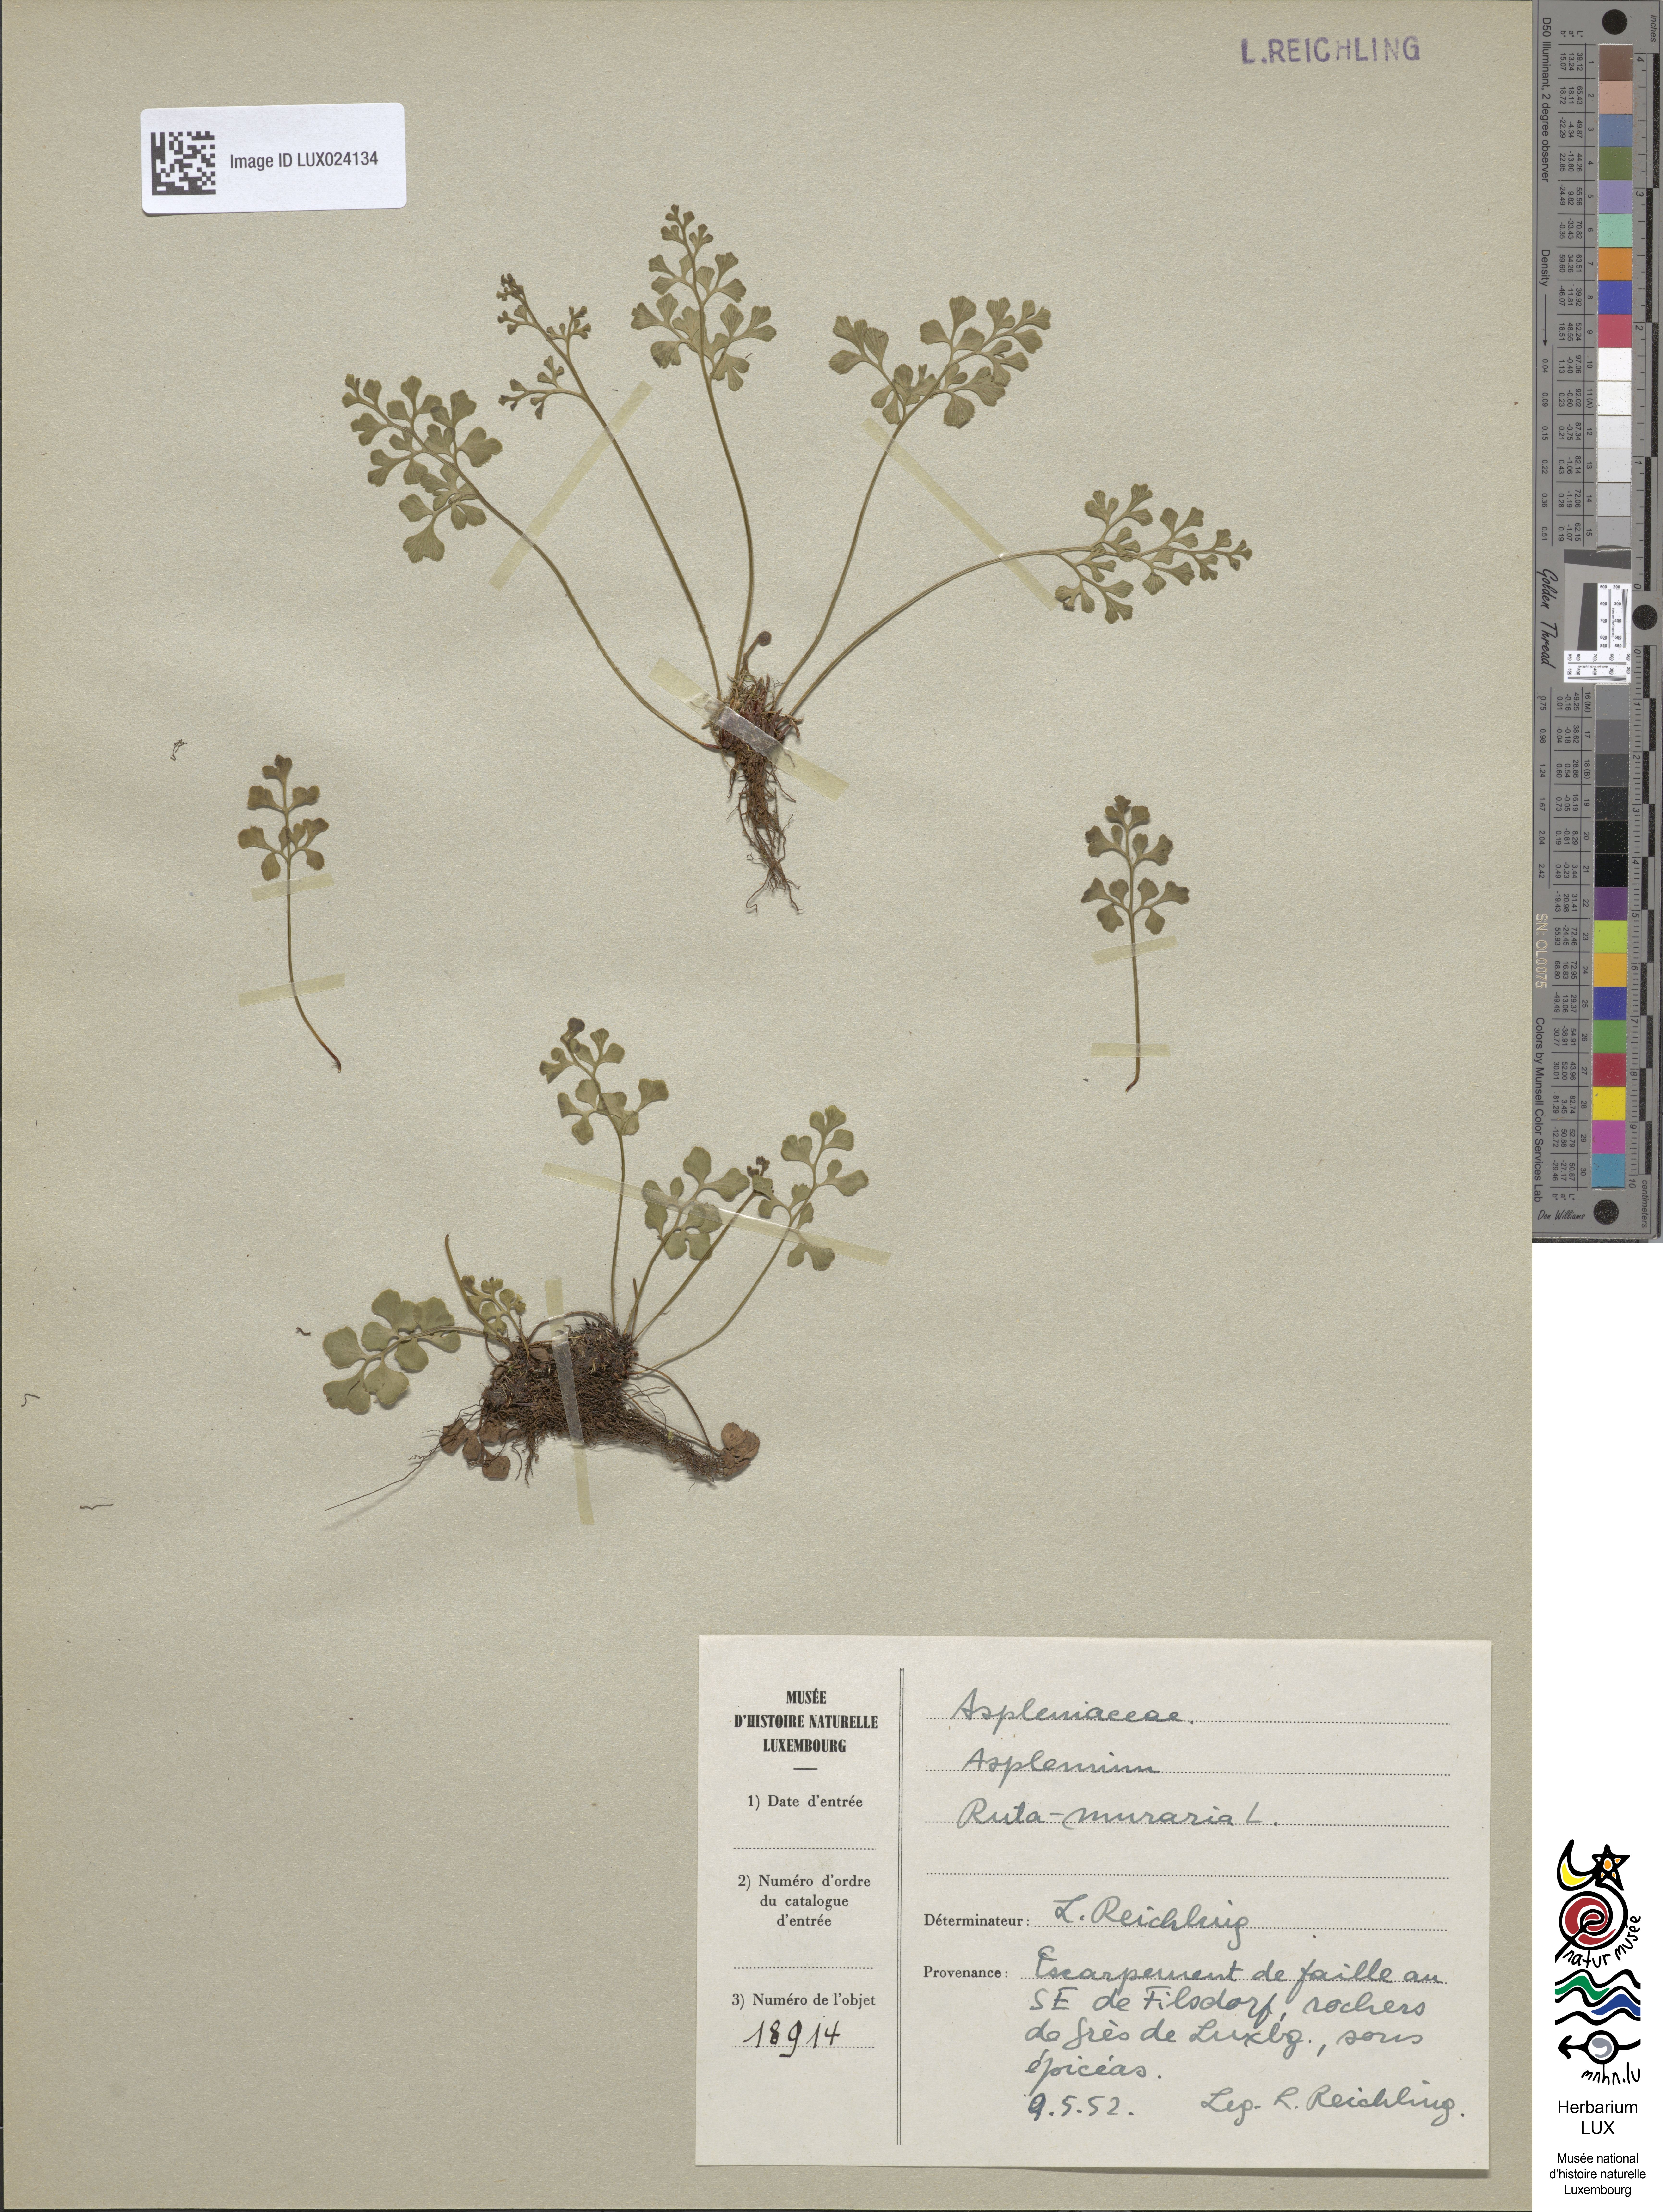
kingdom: Plantae
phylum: Tracheophyta
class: Polypodiopsida
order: Polypodiales
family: Aspleniaceae
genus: Asplenium
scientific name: Asplenium ruta-muraria
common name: Wall-rue
